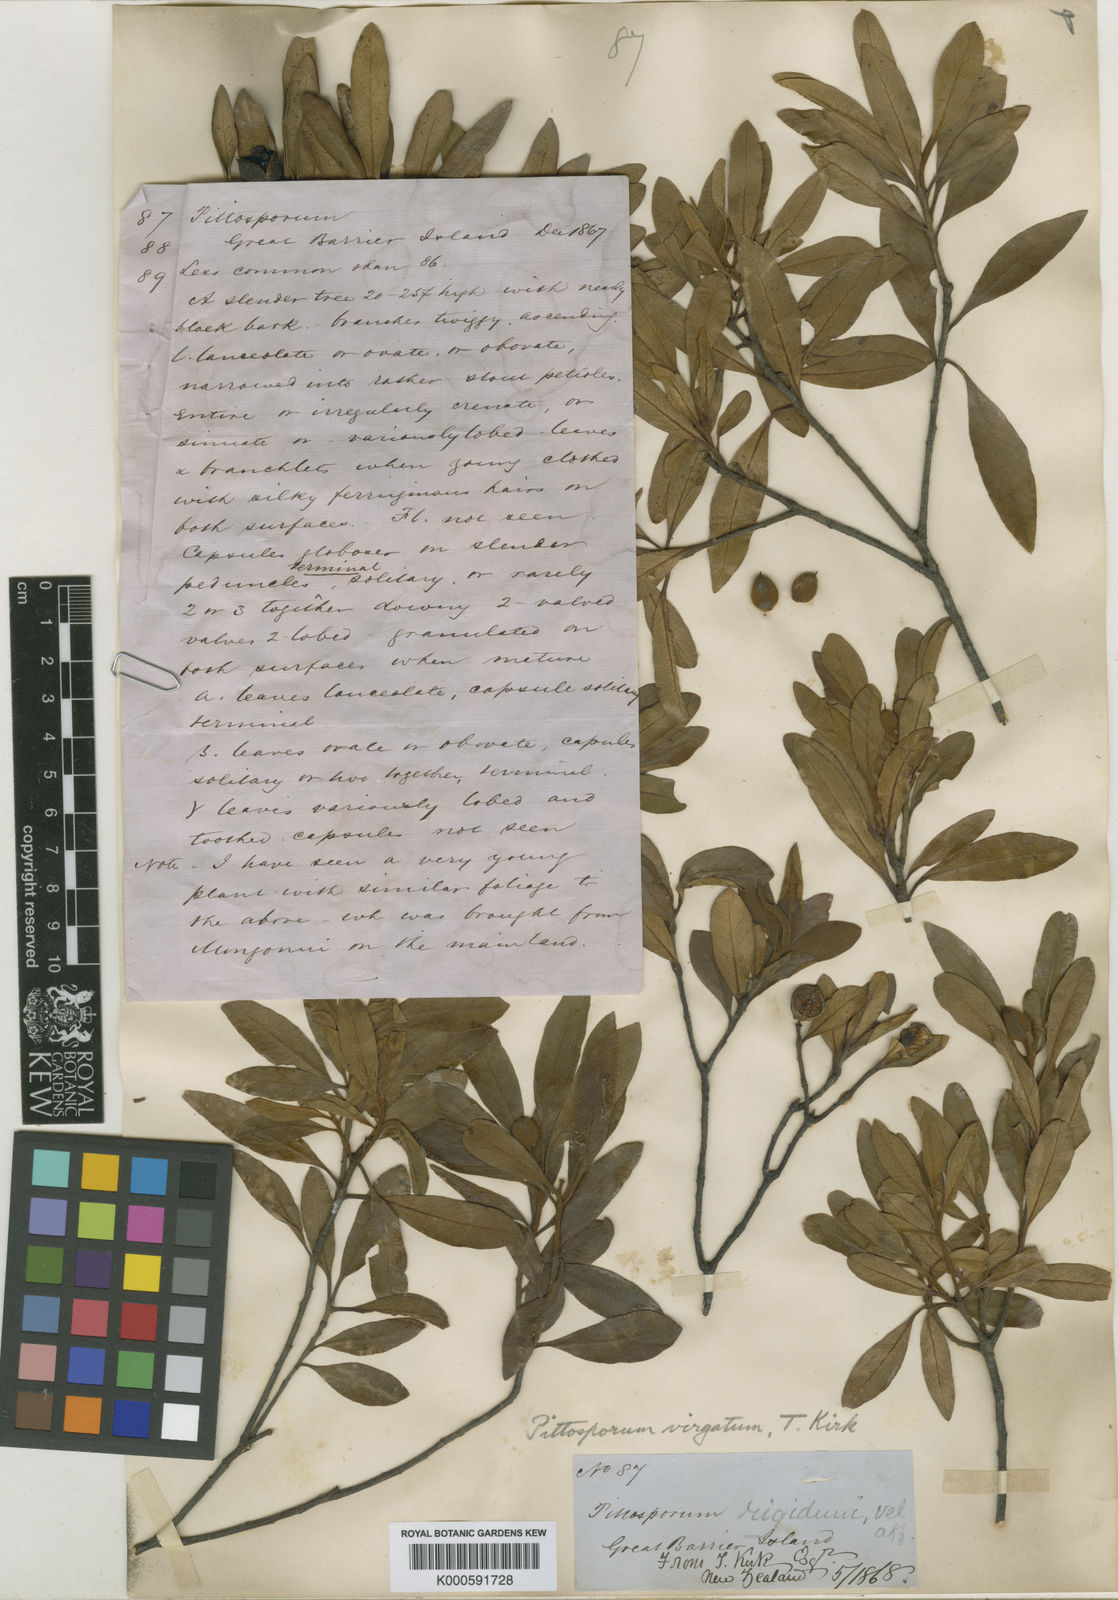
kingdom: Plantae
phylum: Tracheophyta
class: Magnoliopsida
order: Apiales
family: Pittosporaceae
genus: Pittosporum
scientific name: Pittosporum virgatum
